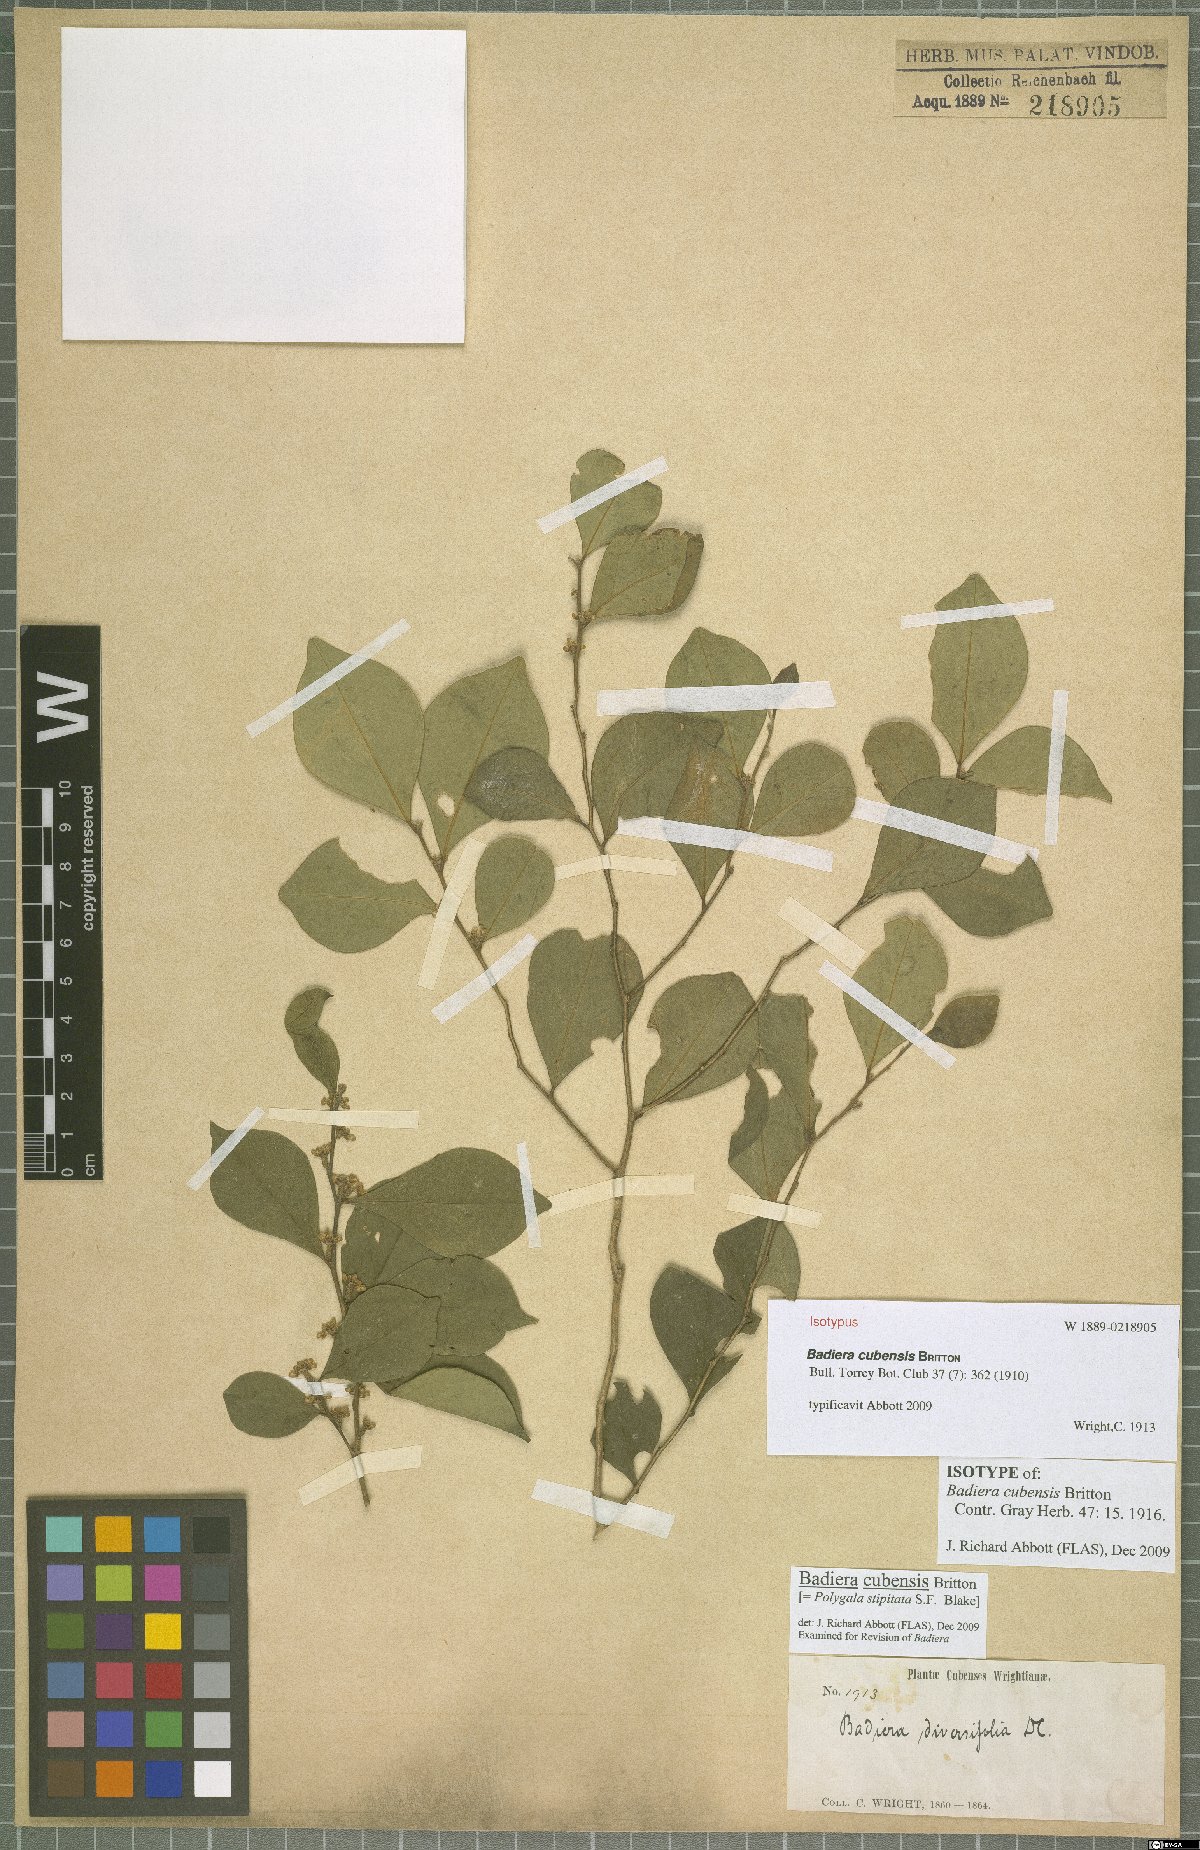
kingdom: Plantae
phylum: Tracheophyta
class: Magnoliopsida
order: Fabales
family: Polygalaceae
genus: Badiera
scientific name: Badiera cubensis
